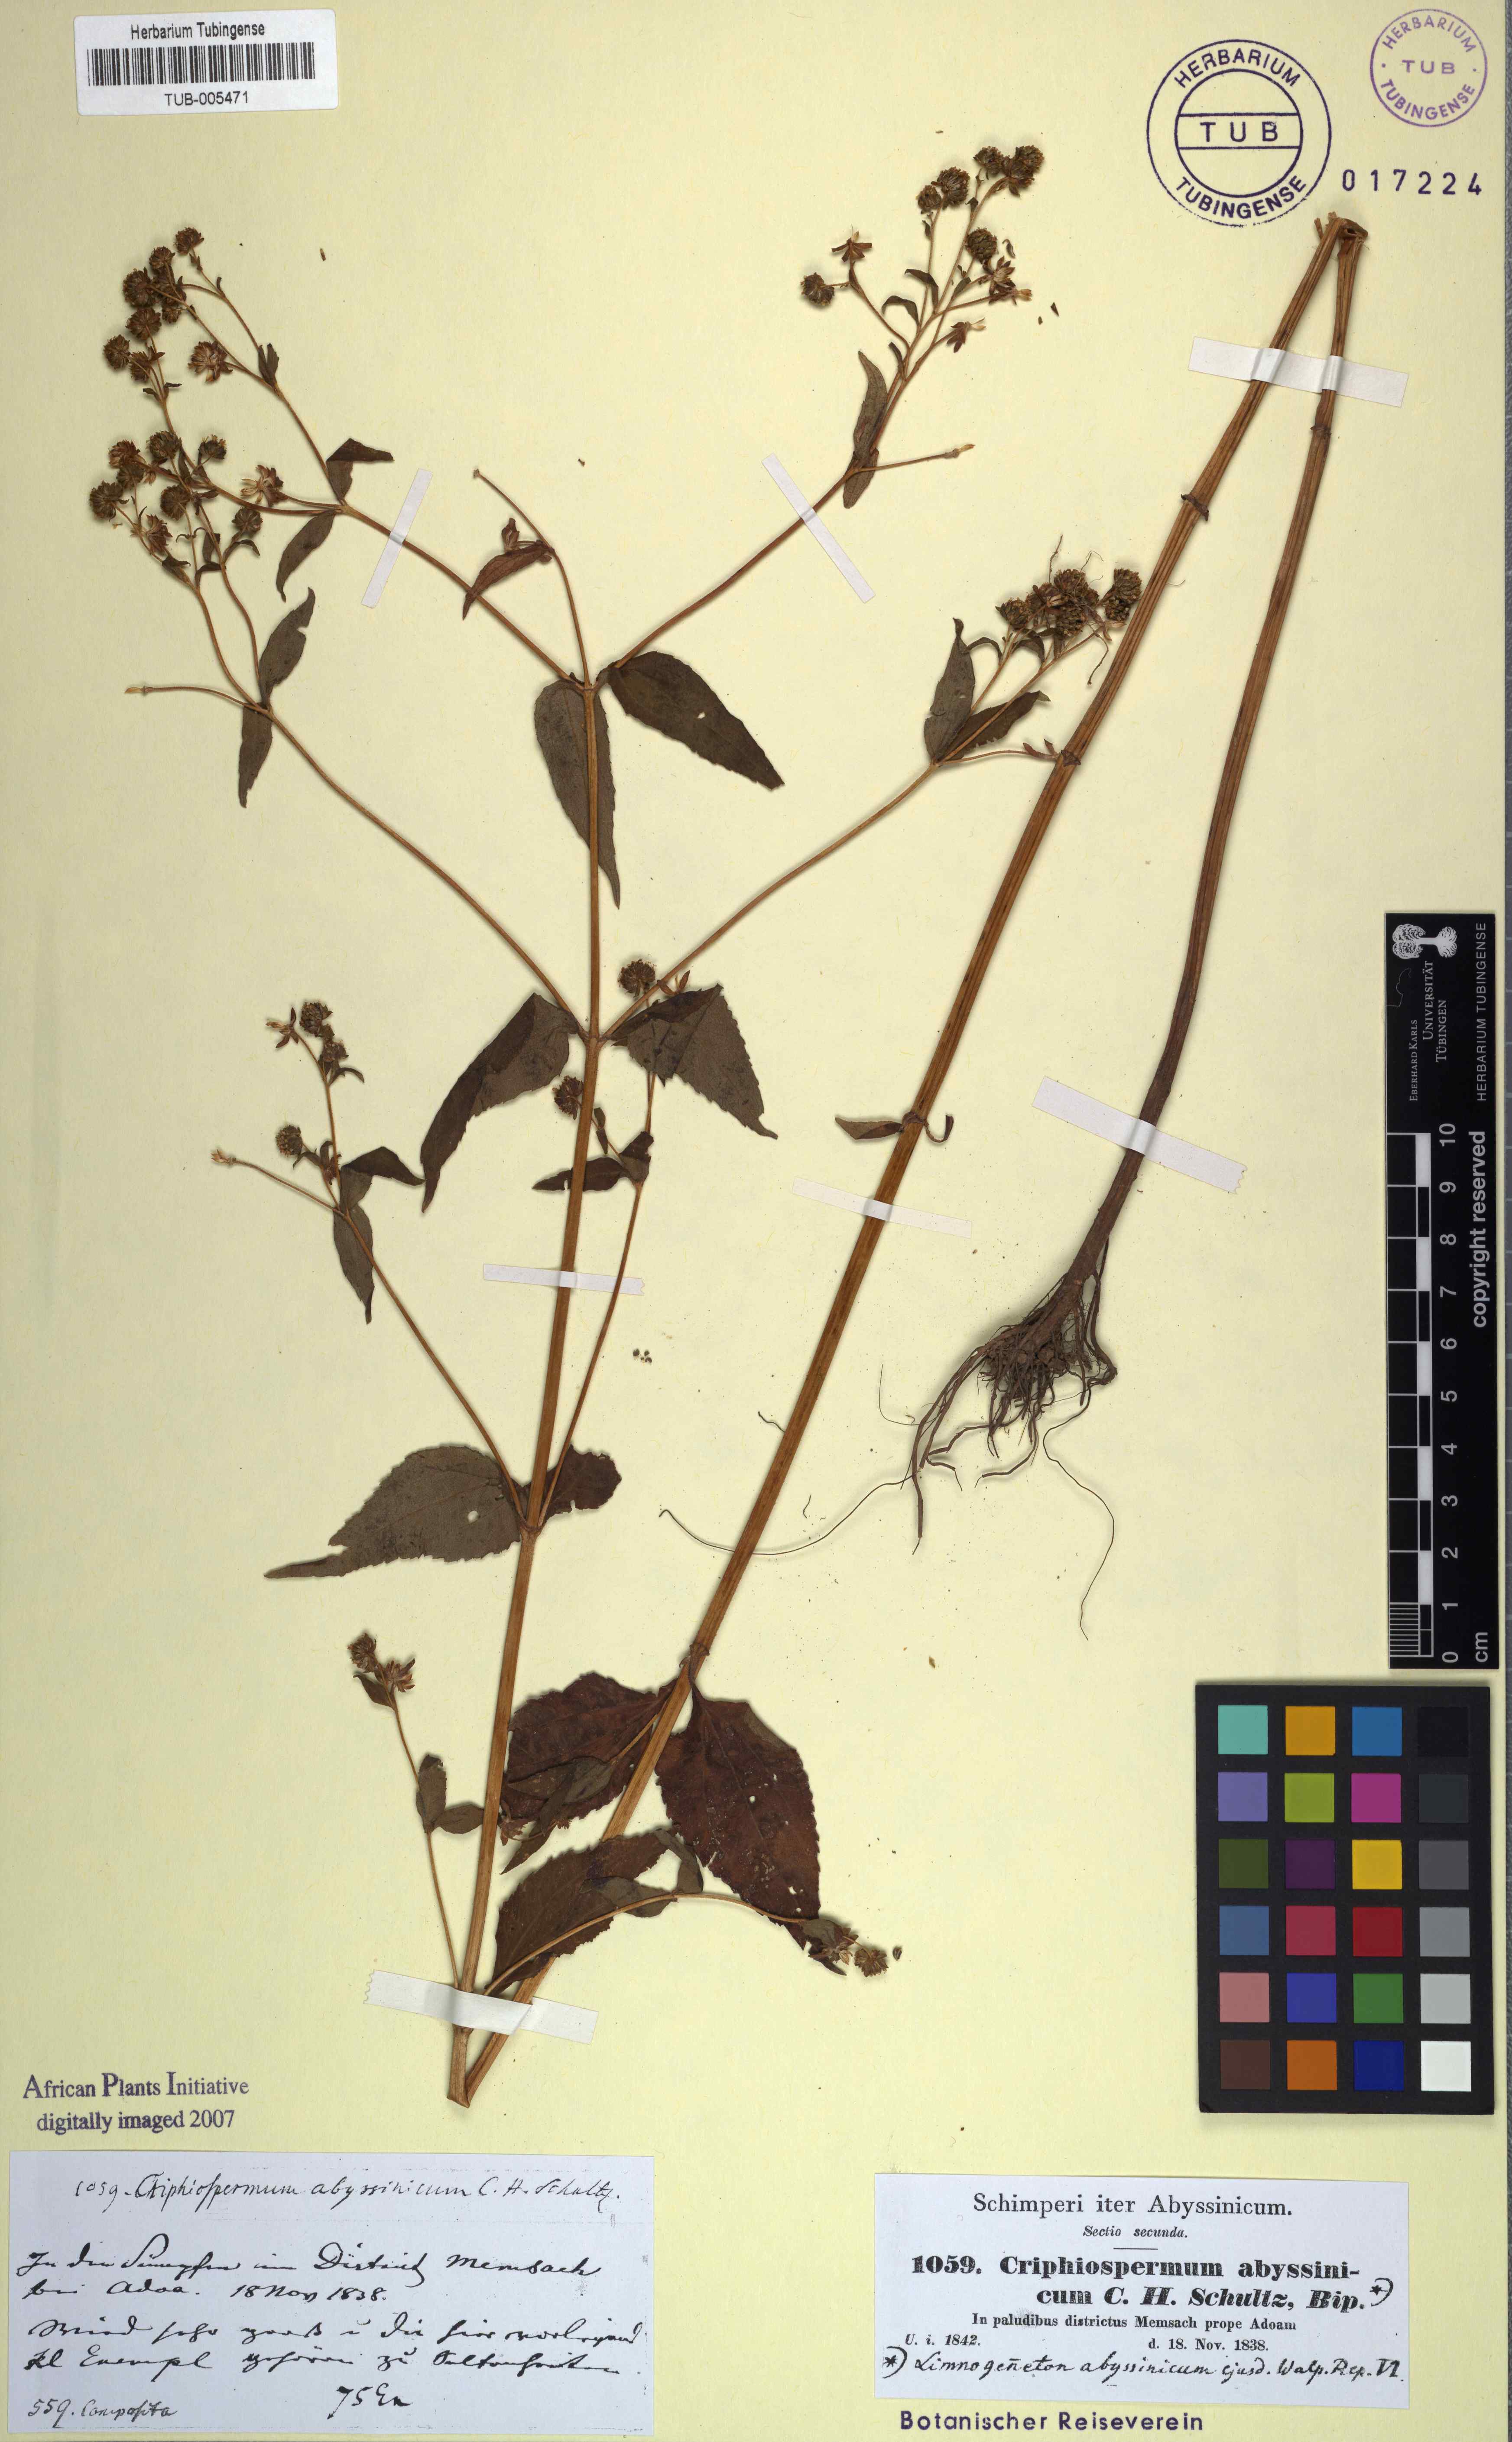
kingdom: Plantae
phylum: Tracheophyta
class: Magnoliopsida
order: Asterales
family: Asteraceae
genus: Micractis
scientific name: Micractis bojeri
